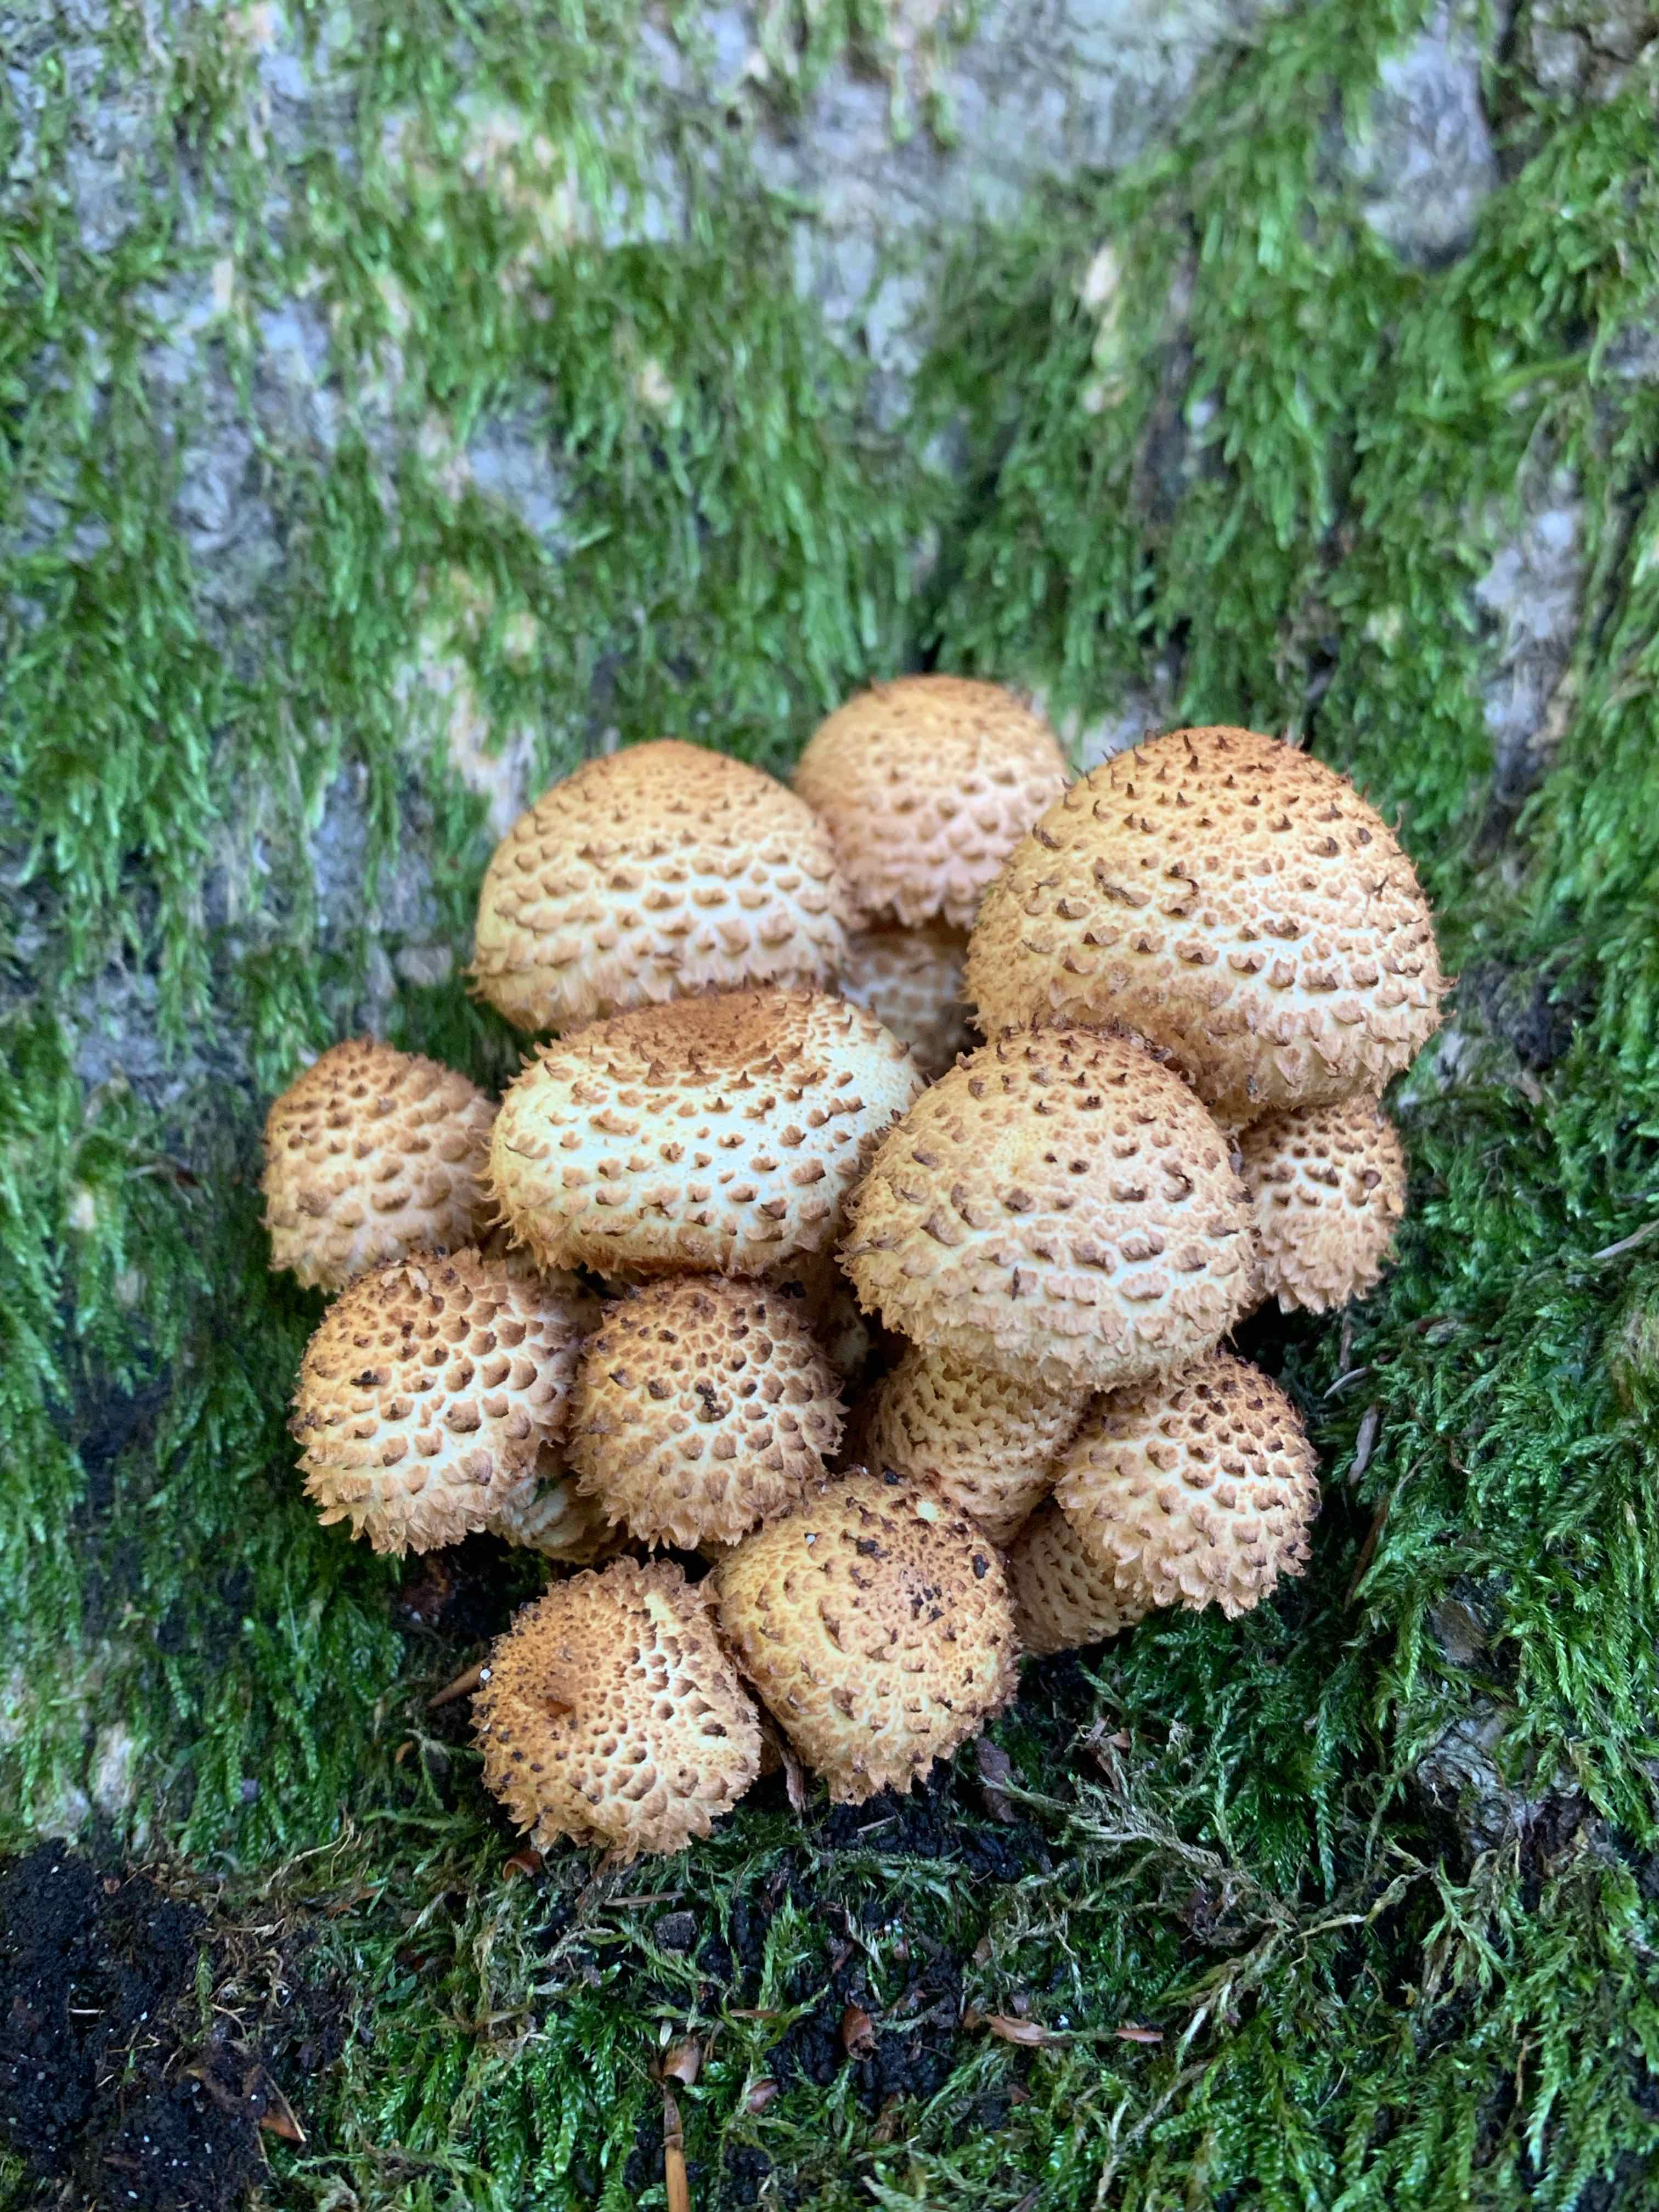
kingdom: Fungi
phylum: Basidiomycota
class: Agaricomycetes
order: Agaricales
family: Strophariaceae
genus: Pholiota
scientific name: Pholiota squarrosa
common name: krumskællet skælhat
